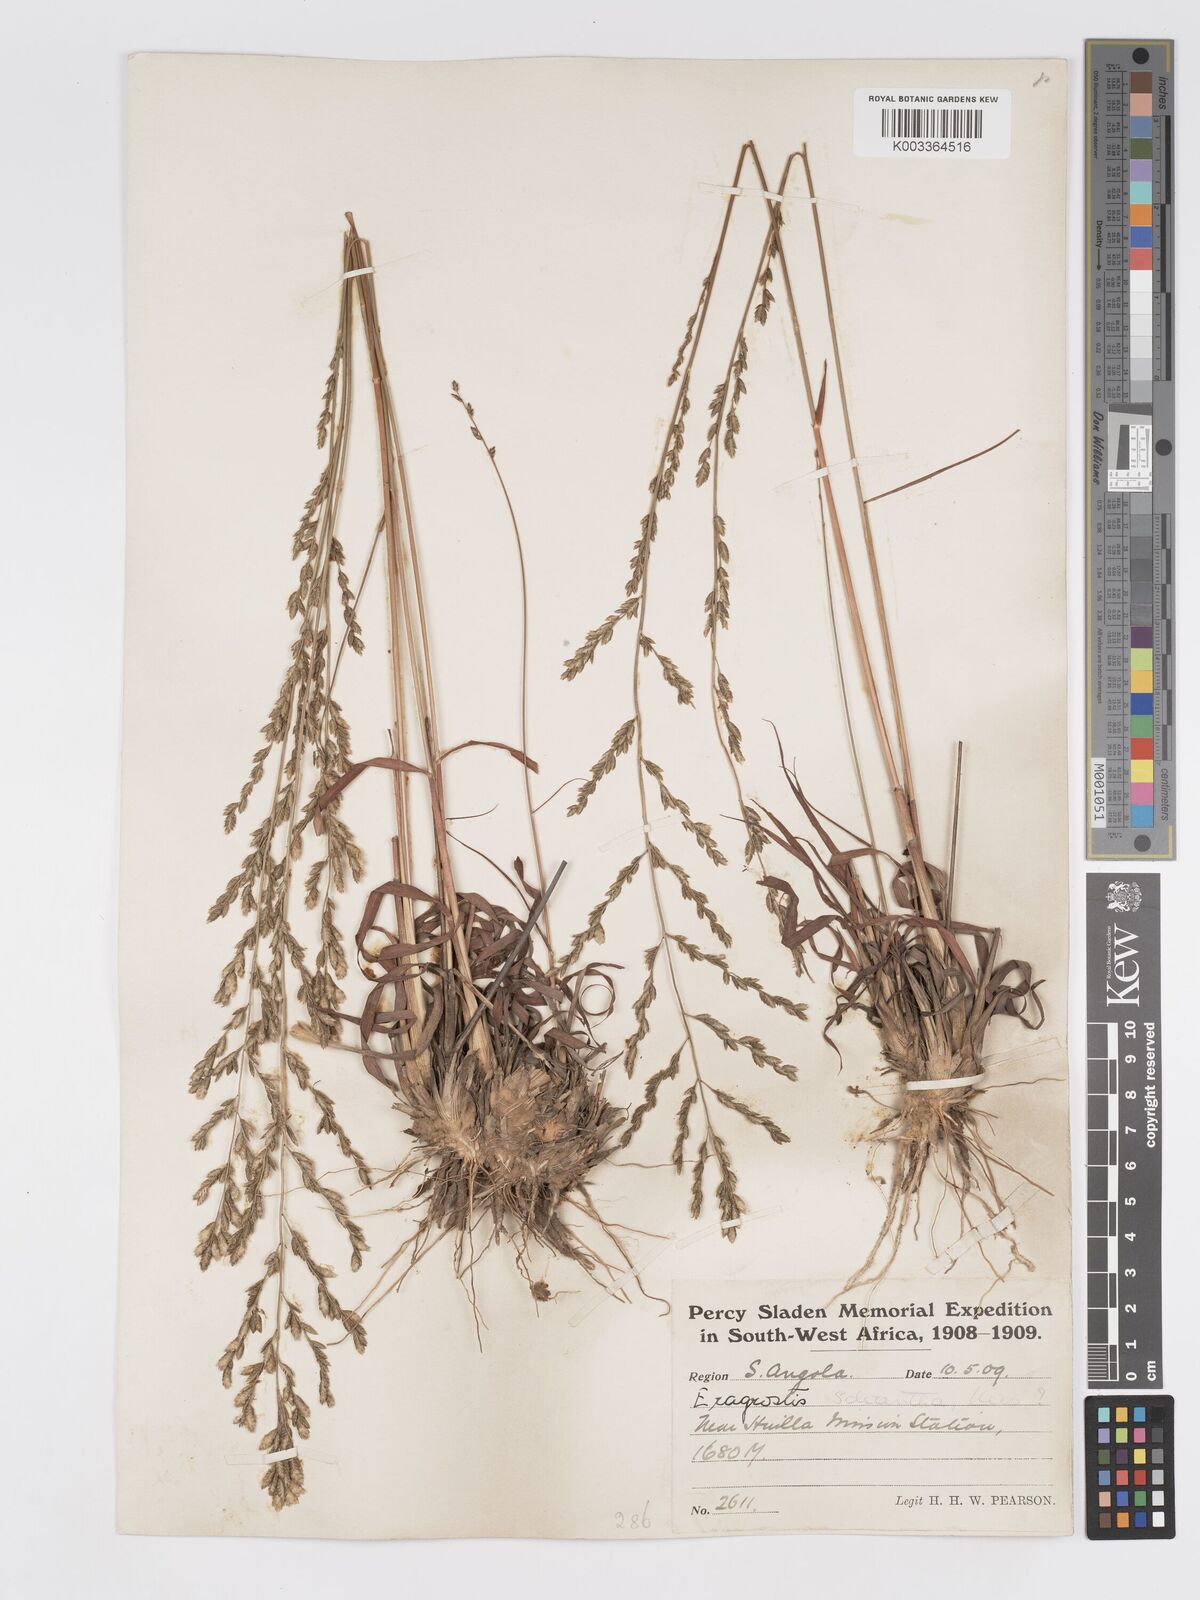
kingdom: Plantae
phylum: Tracheophyta
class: Liliopsida
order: Poales
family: Poaceae
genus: Eragrostis
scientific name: Eragrostis sclerantha
